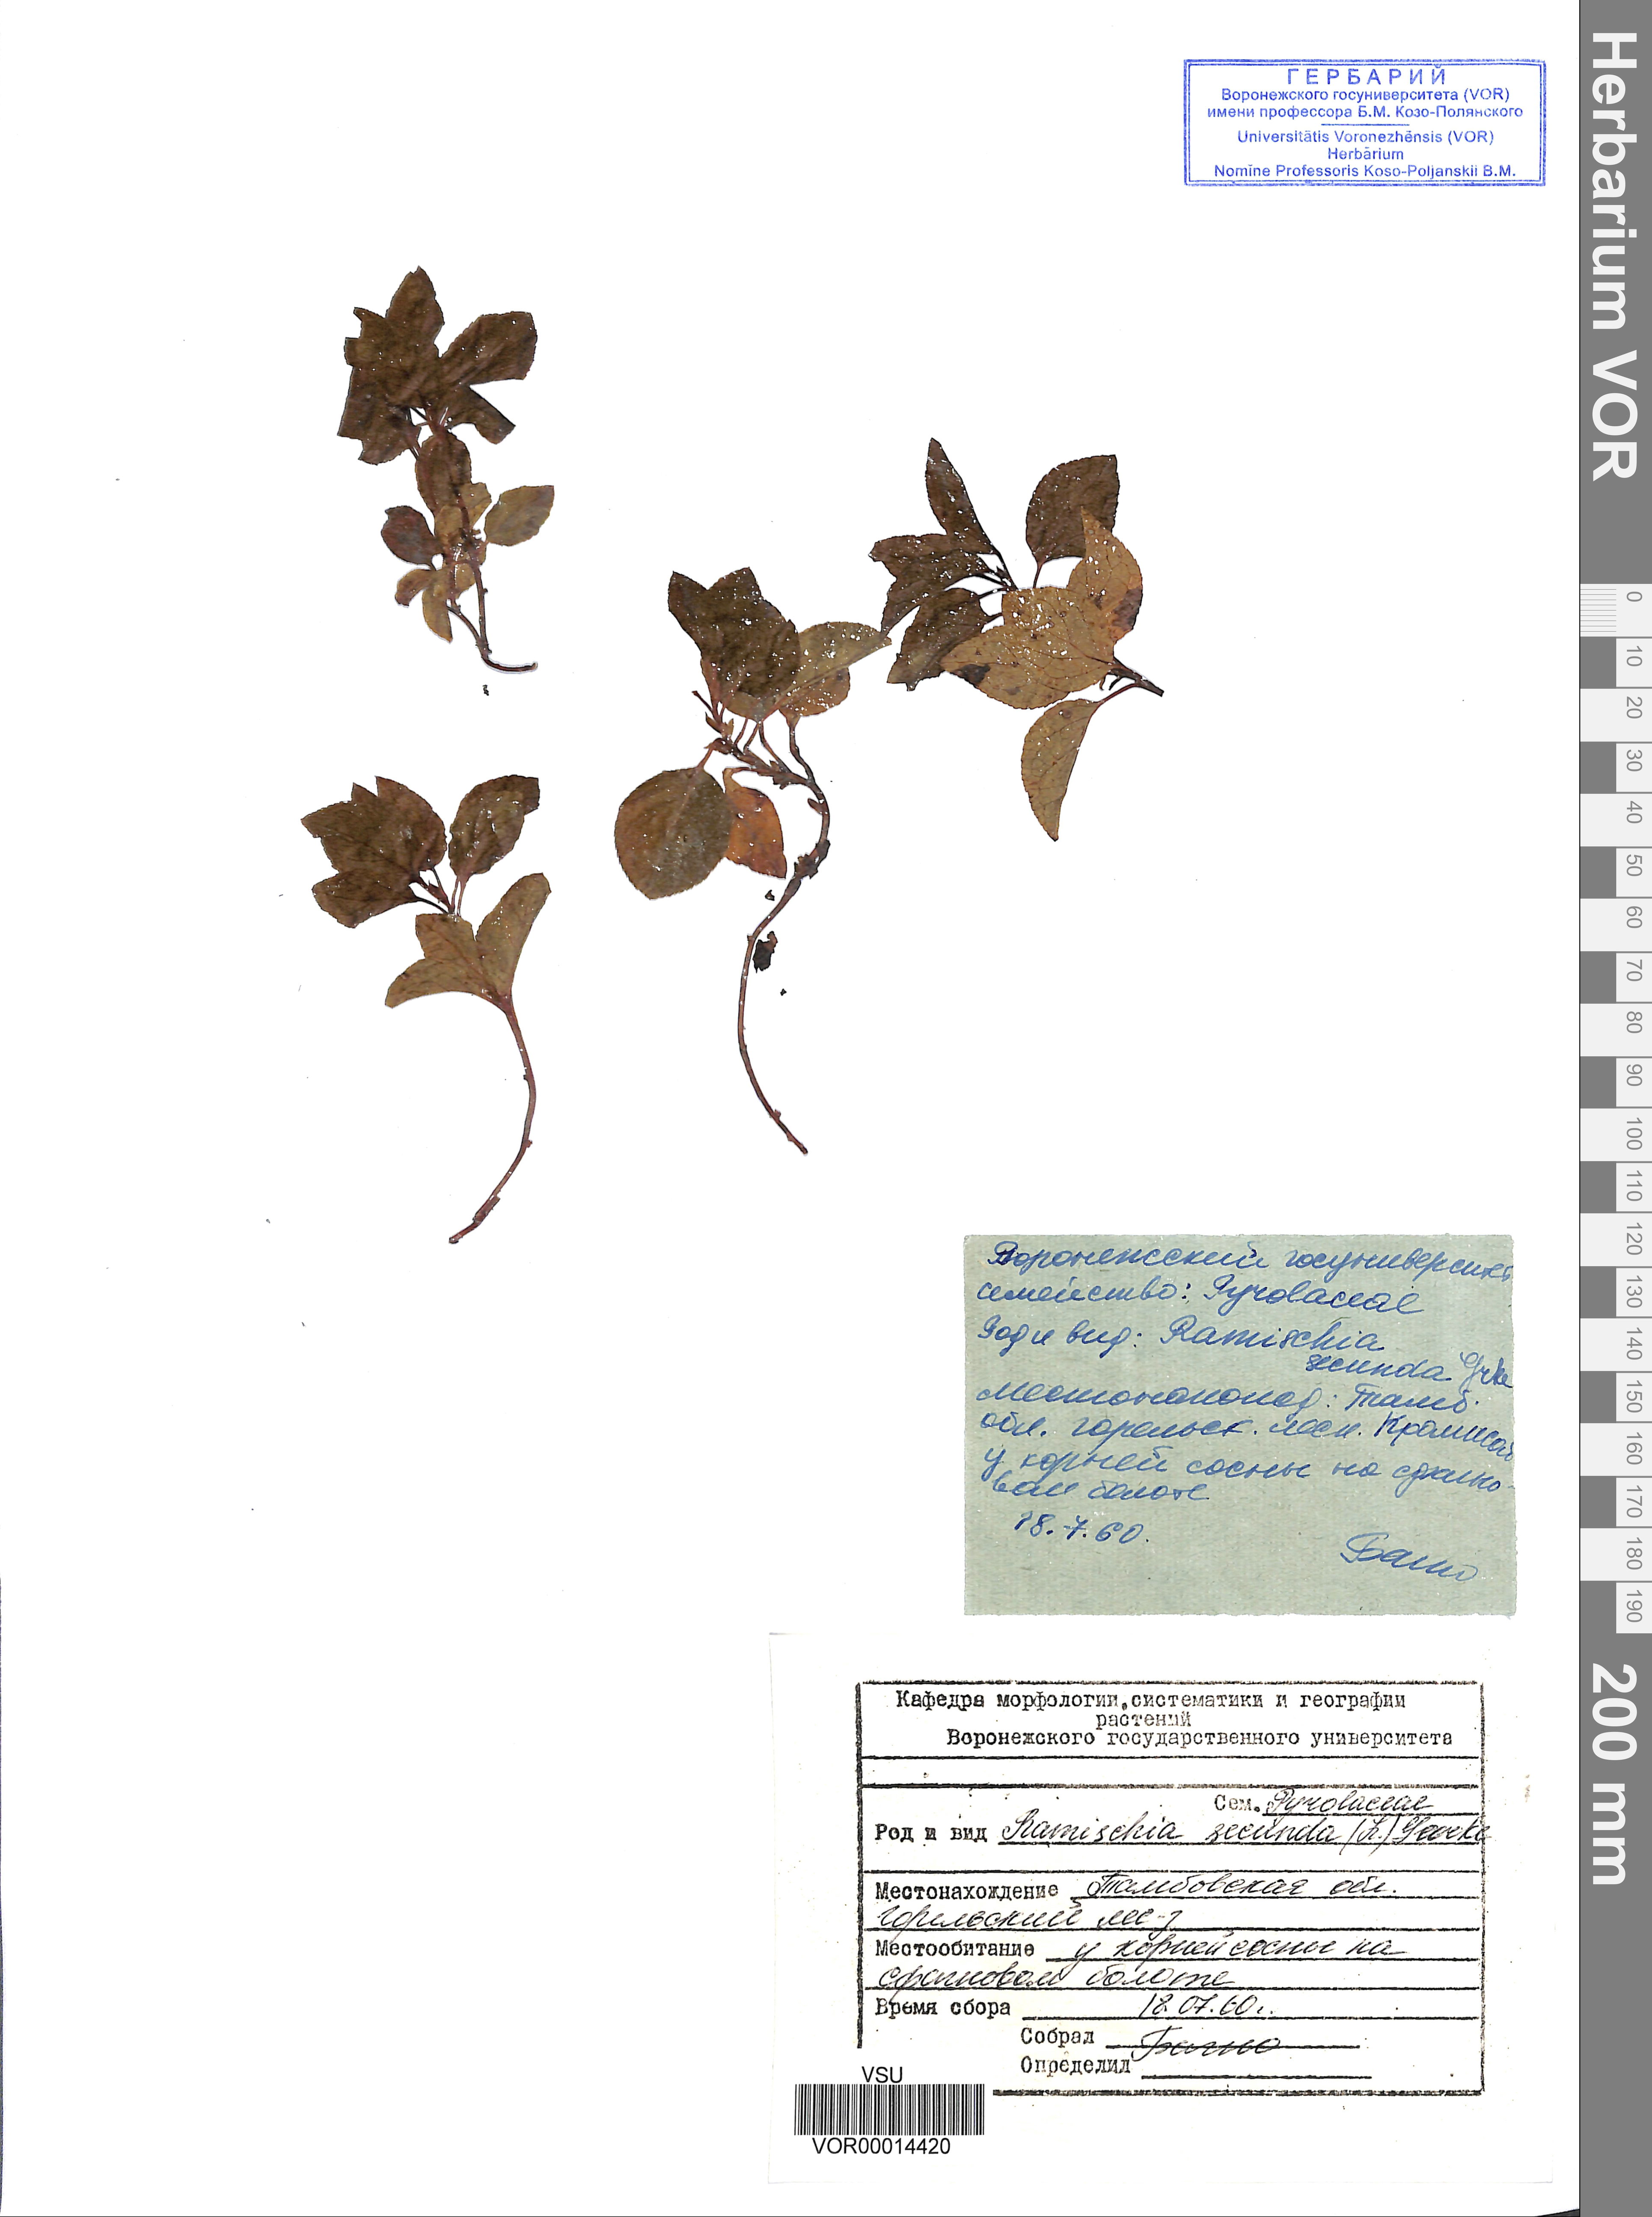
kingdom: Plantae
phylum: Tracheophyta
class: Magnoliopsida
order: Ericales
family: Ericaceae
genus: Orthilia
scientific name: Orthilia secunda
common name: One-sided orthilia
